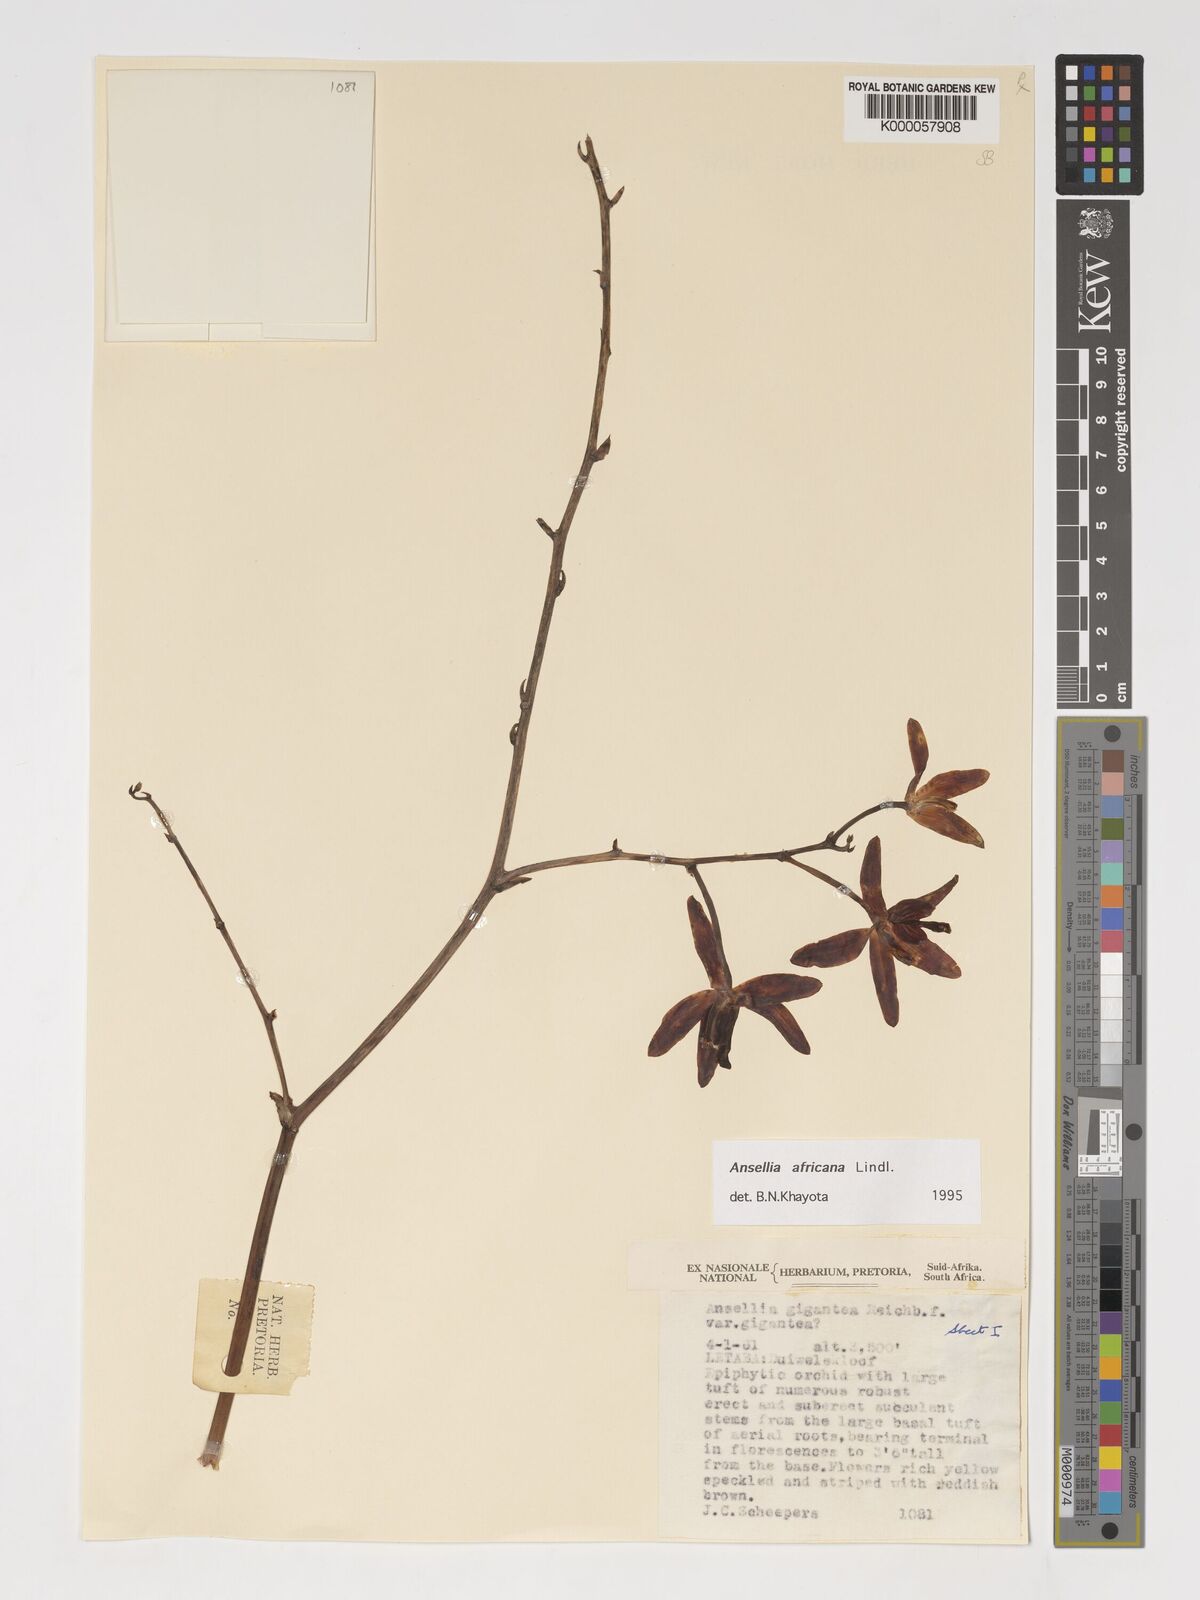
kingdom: Plantae
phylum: Tracheophyta
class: Liliopsida
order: Asparagales
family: Orchidaceae
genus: Ansellia
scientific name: Ansellia africana
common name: African ansellia
